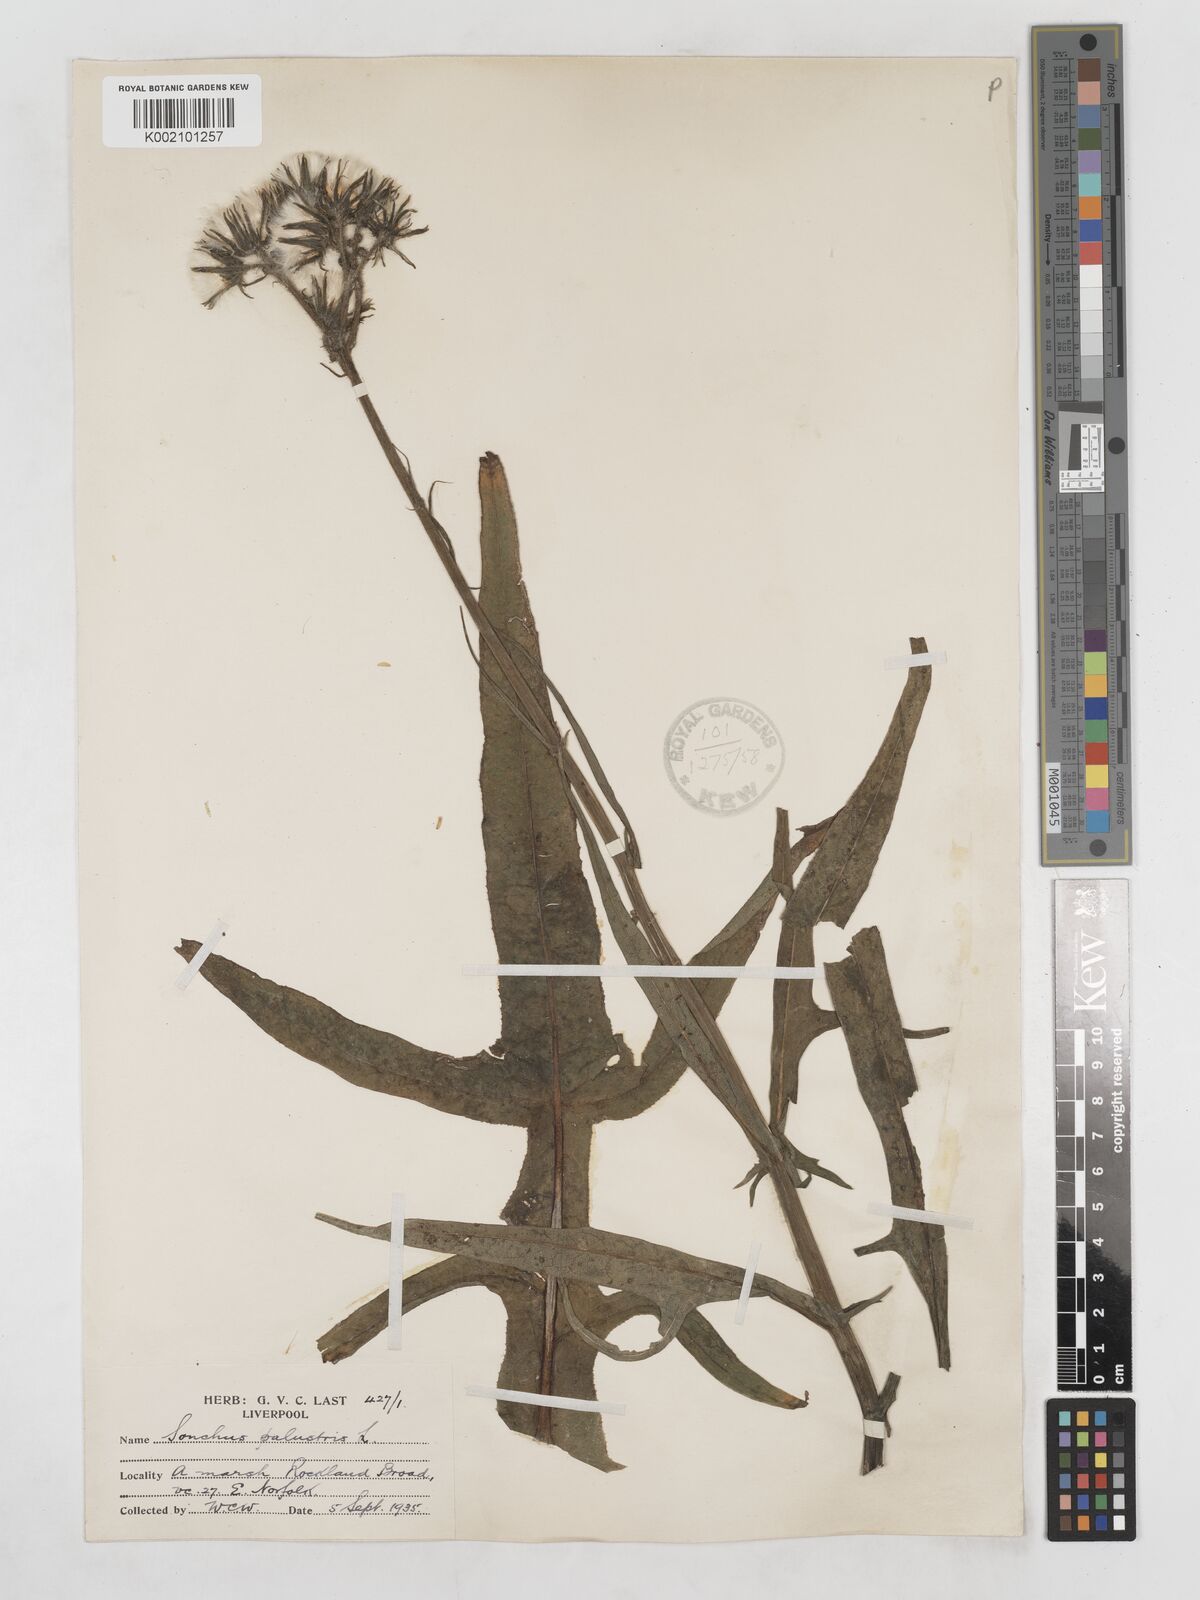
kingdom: Plantae
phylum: Tracheophyta
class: Magnoliopsida
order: Asterales
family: Asteraceae
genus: Sonchus
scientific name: Sonchus palustris
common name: Marsh sow-thistle
